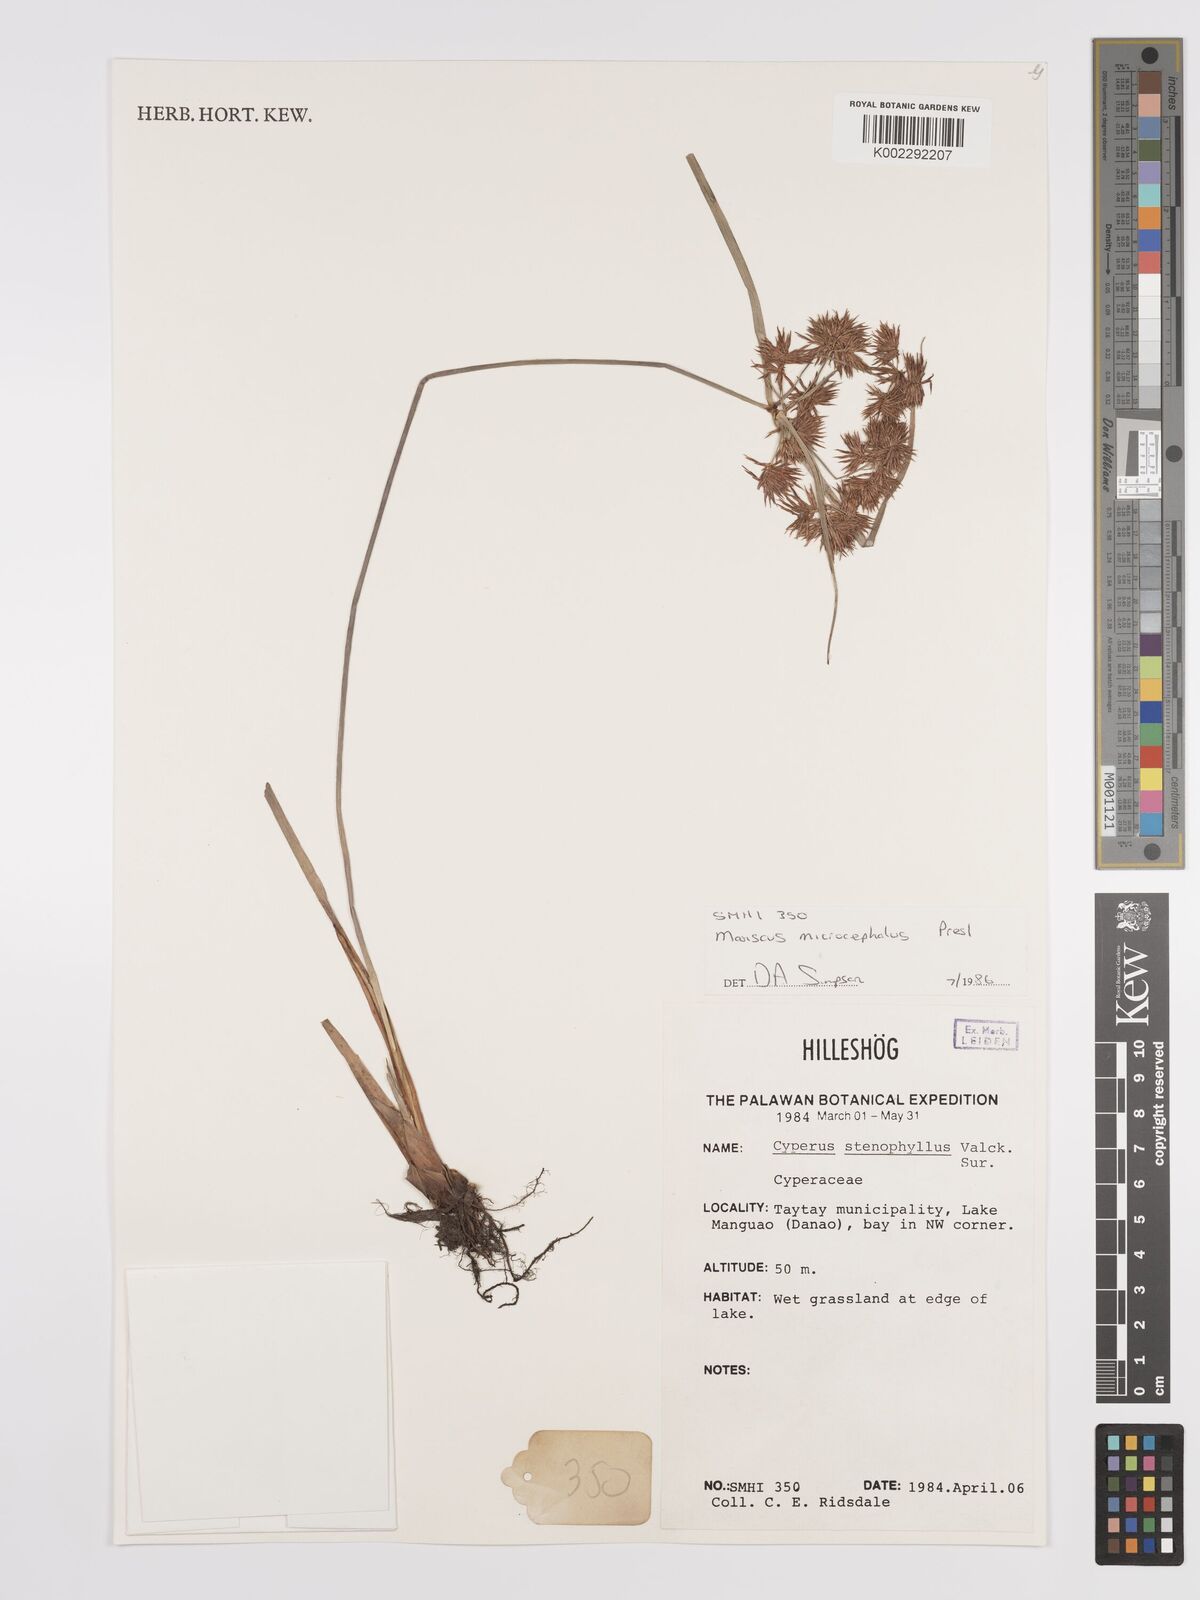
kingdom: Plantae
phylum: Tracheophyta
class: Liliopsida
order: Poales
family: Cyperaceae
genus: Cyperus
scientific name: Cyperus stenophyllus
